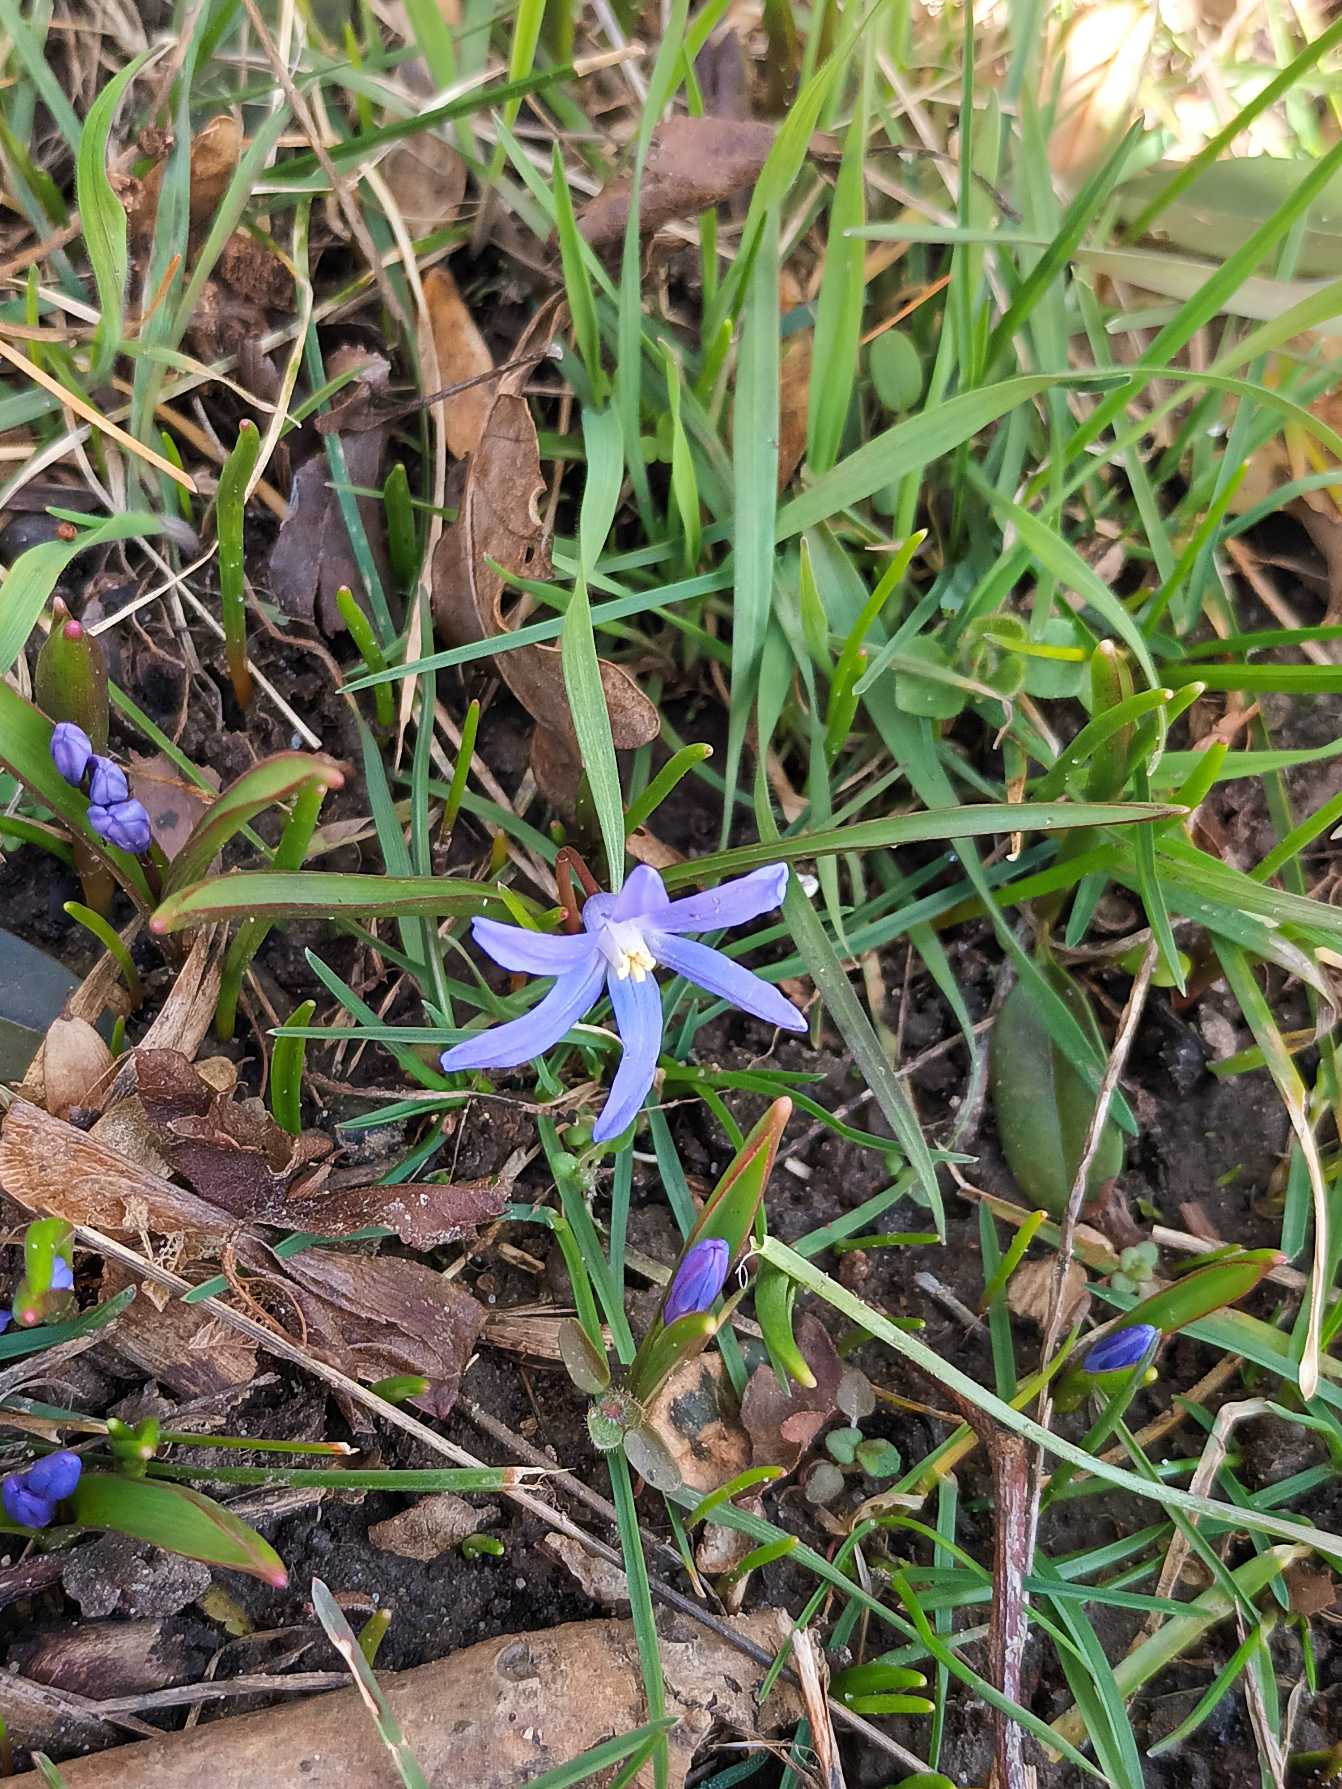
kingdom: Plantae
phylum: Tracheophyta
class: Liliopsida
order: Asparagales
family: Asparagaceae
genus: Scilla
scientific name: Scilla sardensis
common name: Liden snepryd
